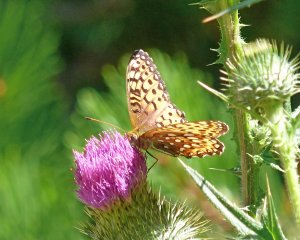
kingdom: Animalia
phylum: Arthropoda
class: Insecta
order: Lepidoptera
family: Nymphalidae
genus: Speyeria
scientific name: Speyeria hydaspe
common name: Hydaspe Fritillary
